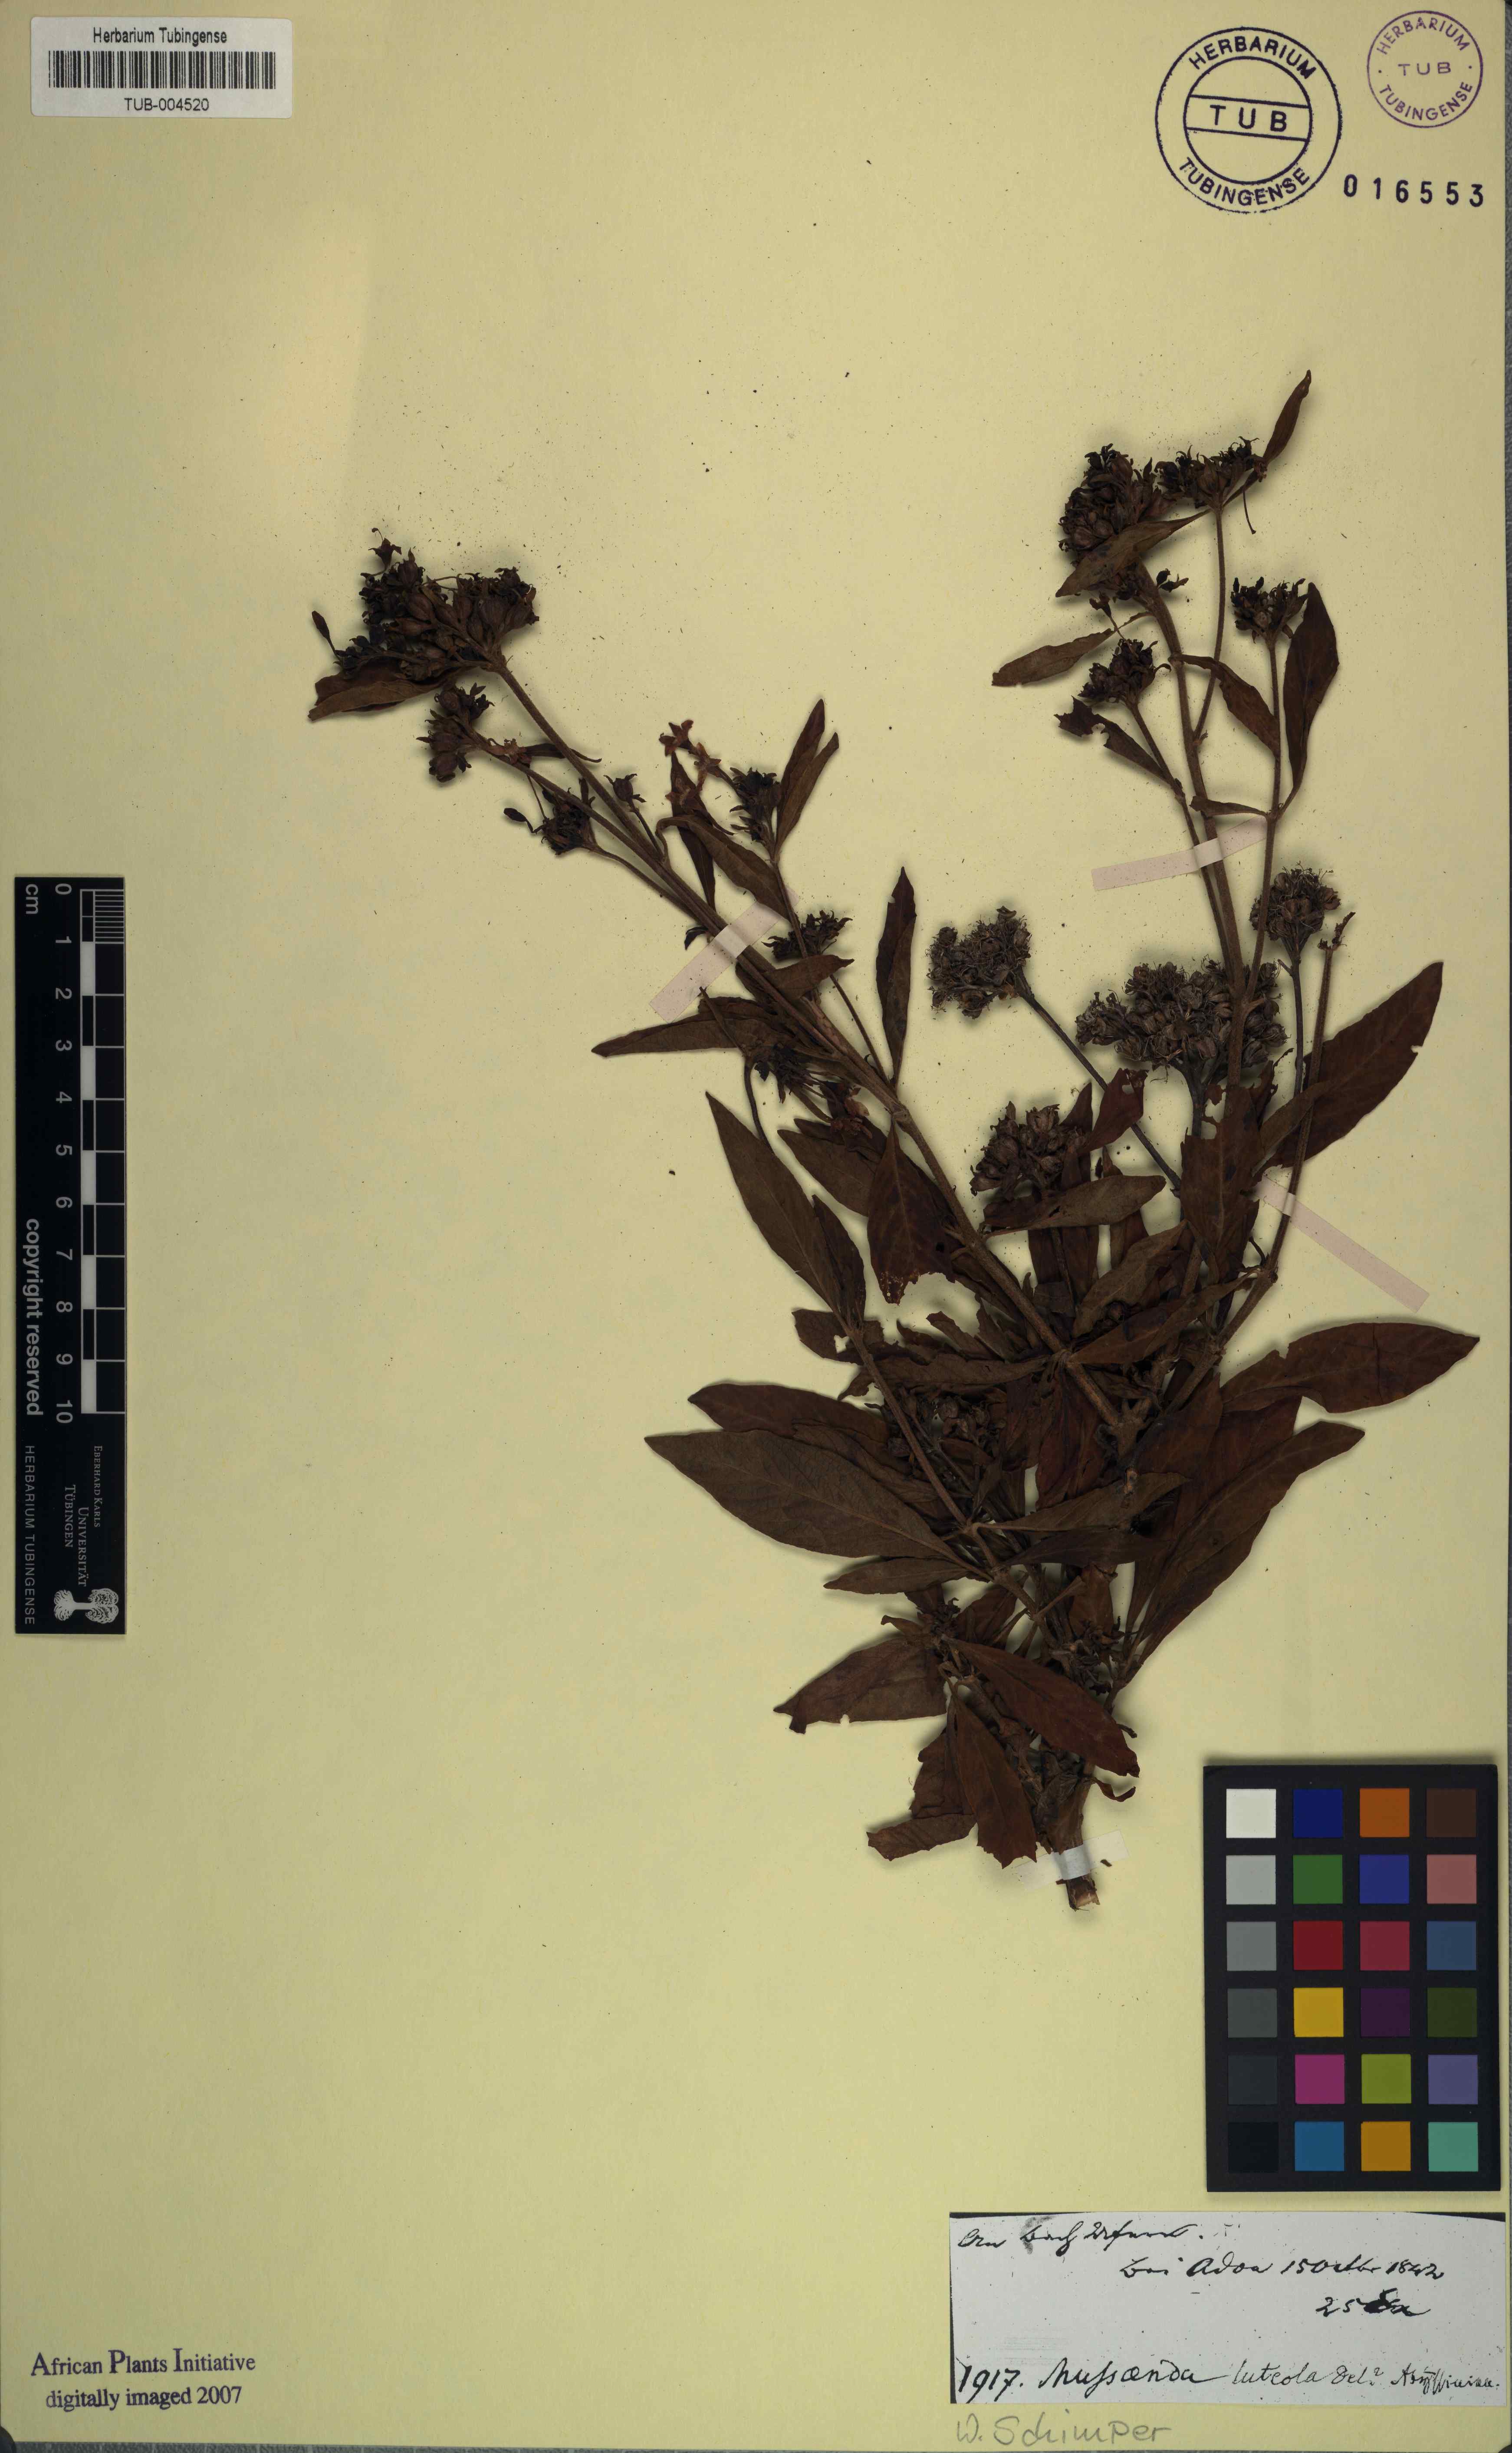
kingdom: Plantae
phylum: Tracheophyta
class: Magnoliopsida
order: Gentianales
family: Rubiaceae
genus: Pentas
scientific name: Pentas lanceolata
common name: Egyptian starcluster
